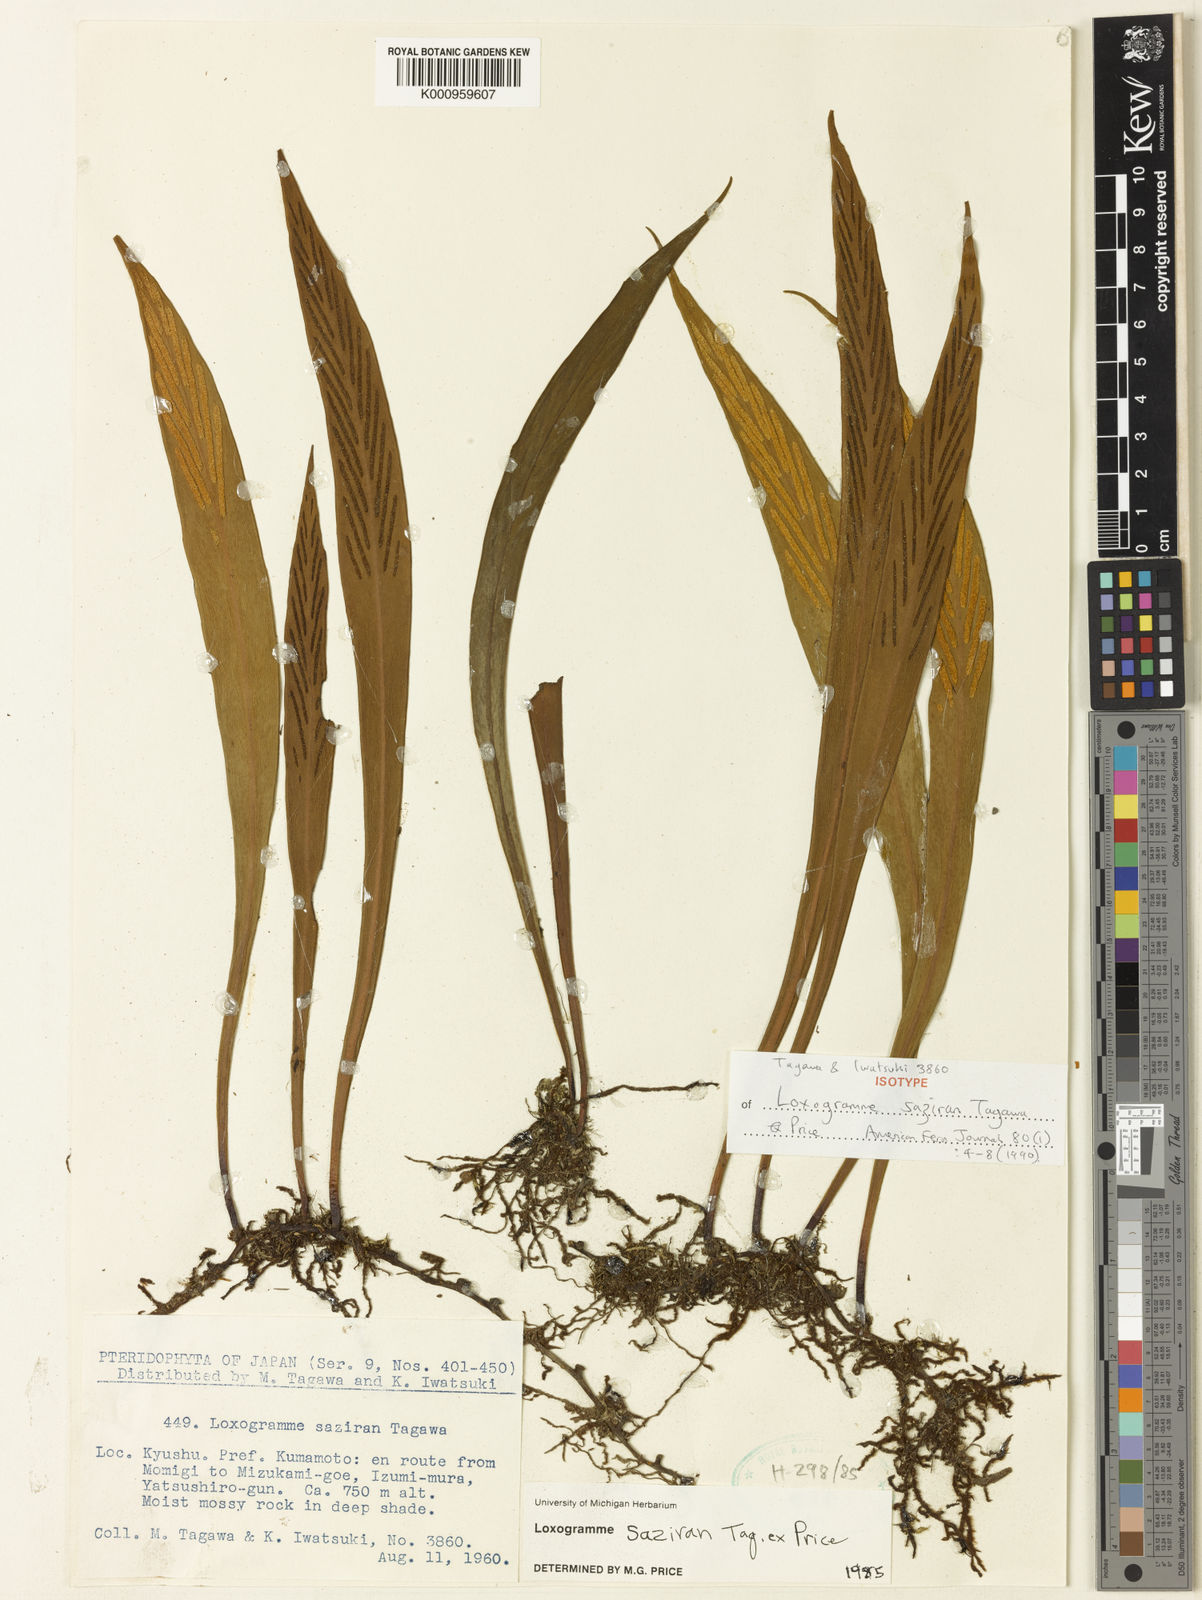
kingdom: Plantae
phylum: Tracheophyta
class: Polypodiopsida
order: Polypodiales
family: Polypodiaceae
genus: Loxogramme
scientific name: Loxogramme
